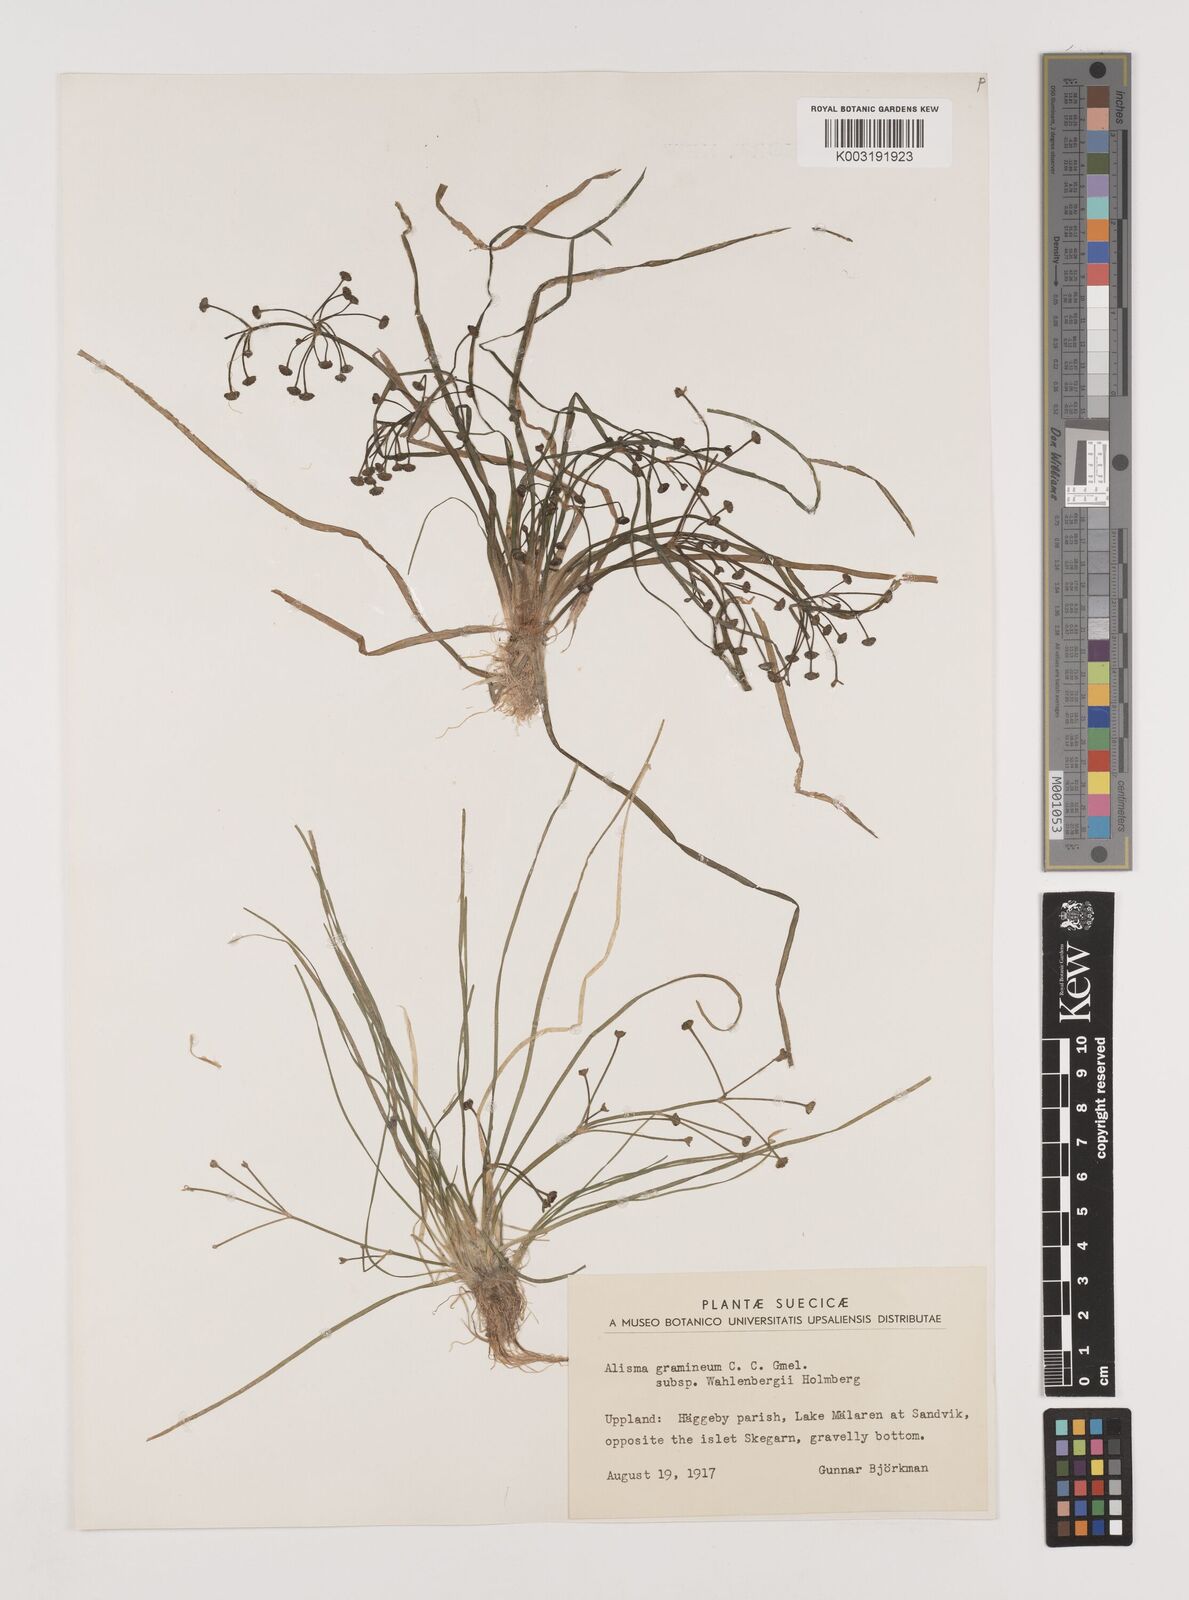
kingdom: Plantae
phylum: Tracheophyta
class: Liliopsida
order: Alismatales
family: Alismataceae
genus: Alisma
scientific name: Alisma wahlenbergii
